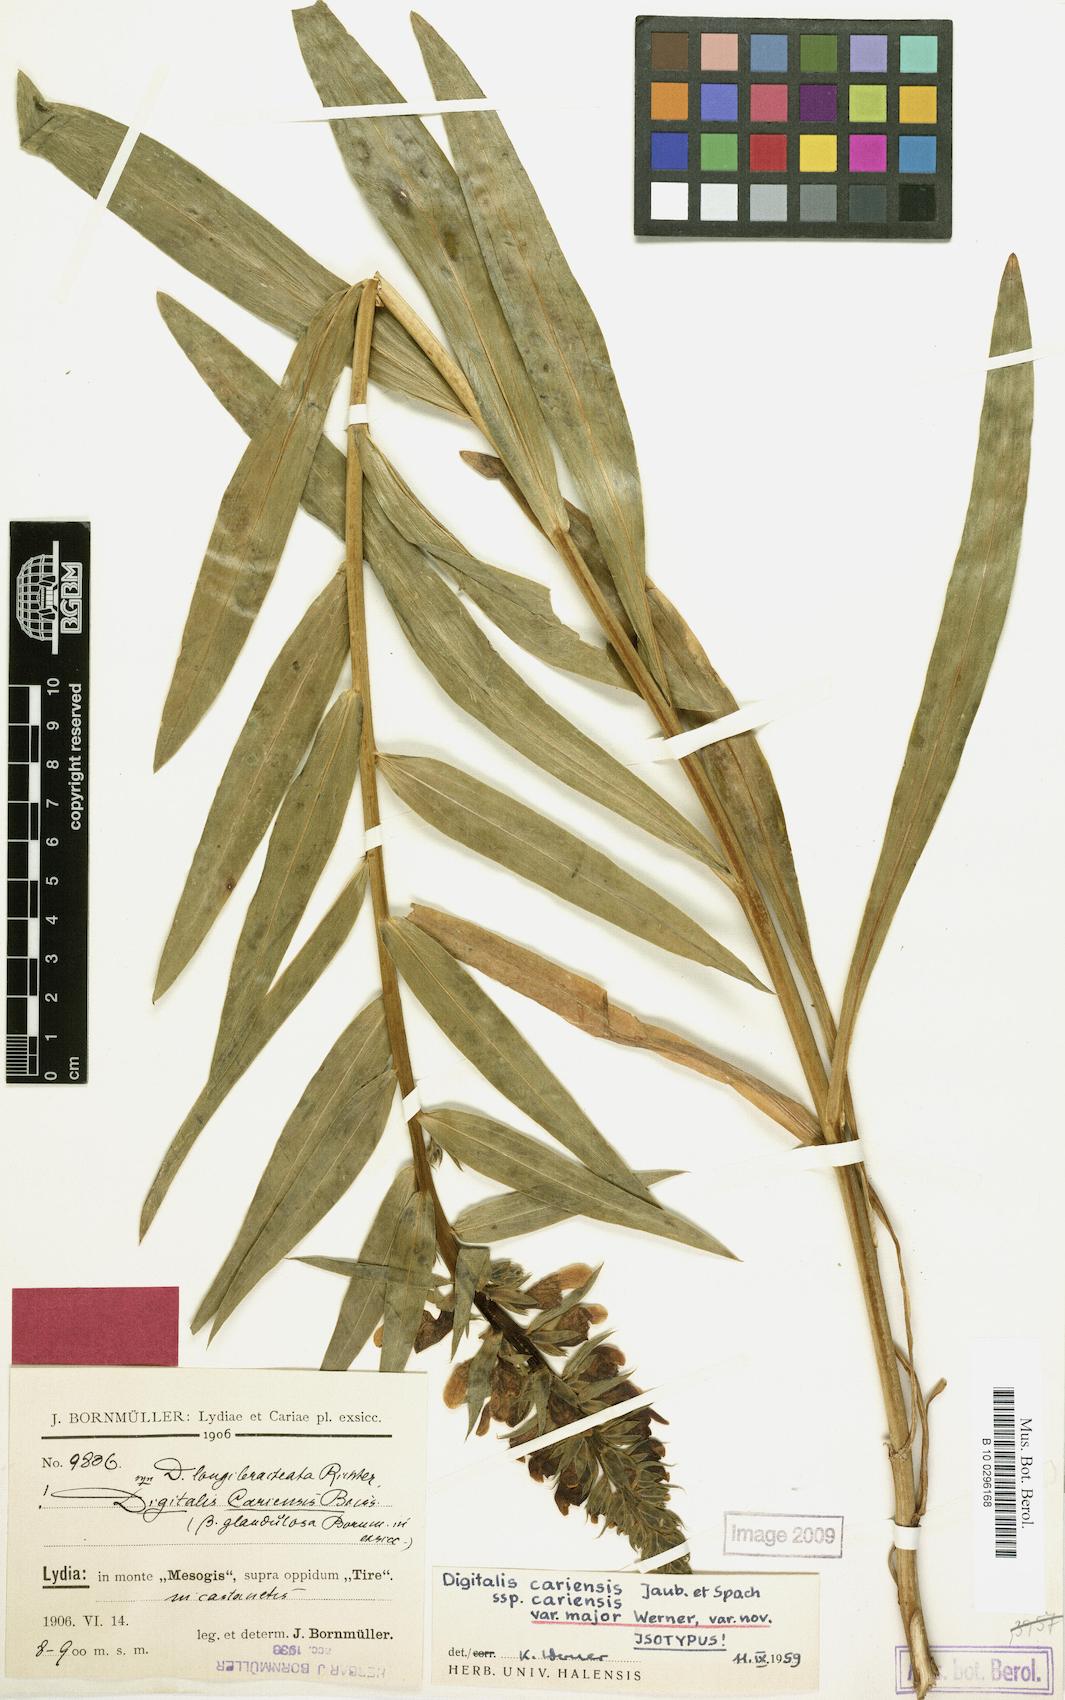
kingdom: Plantae
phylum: Tracheophyta
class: Magnoliopsida
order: Lamiales
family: Plantaginaceae
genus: Digitalis
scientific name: Digitalis cariensis
